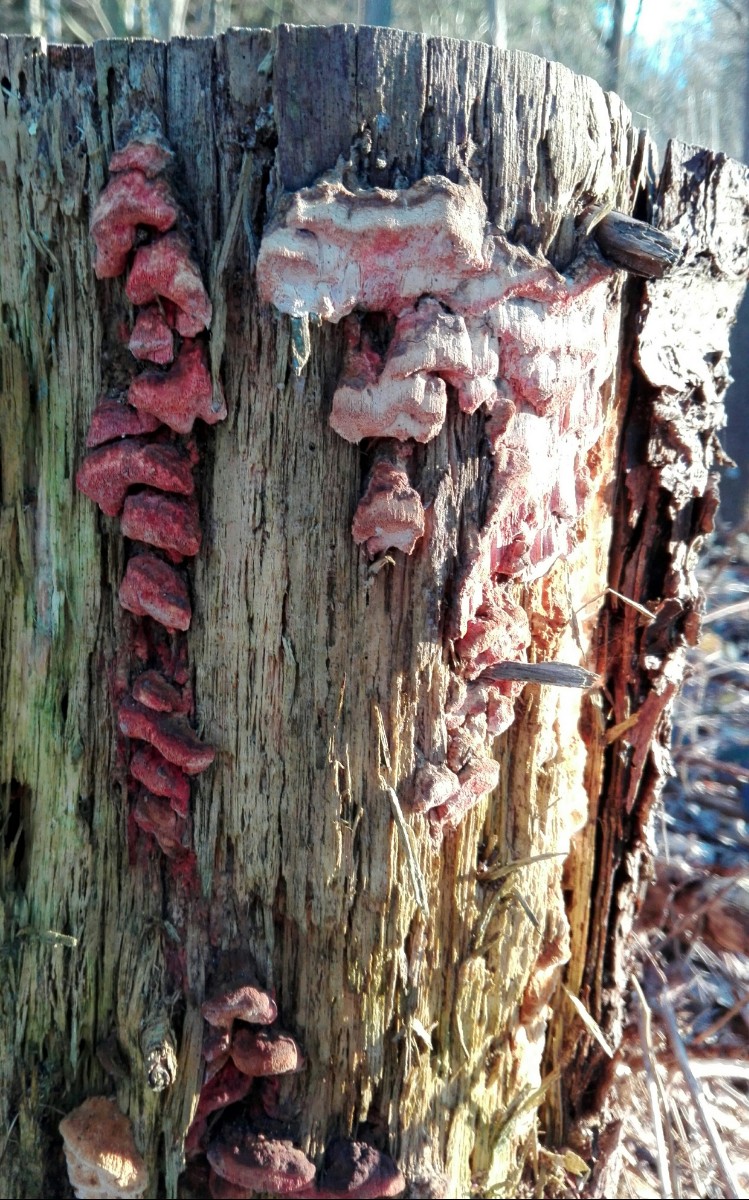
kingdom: Fungi
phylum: Basidiomycota
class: Agaricomycetes
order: Polyporales
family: Fomitopsidaceae
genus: Neoantrodia
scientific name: Neoantrodia serialis
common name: række-sejporesvamp
